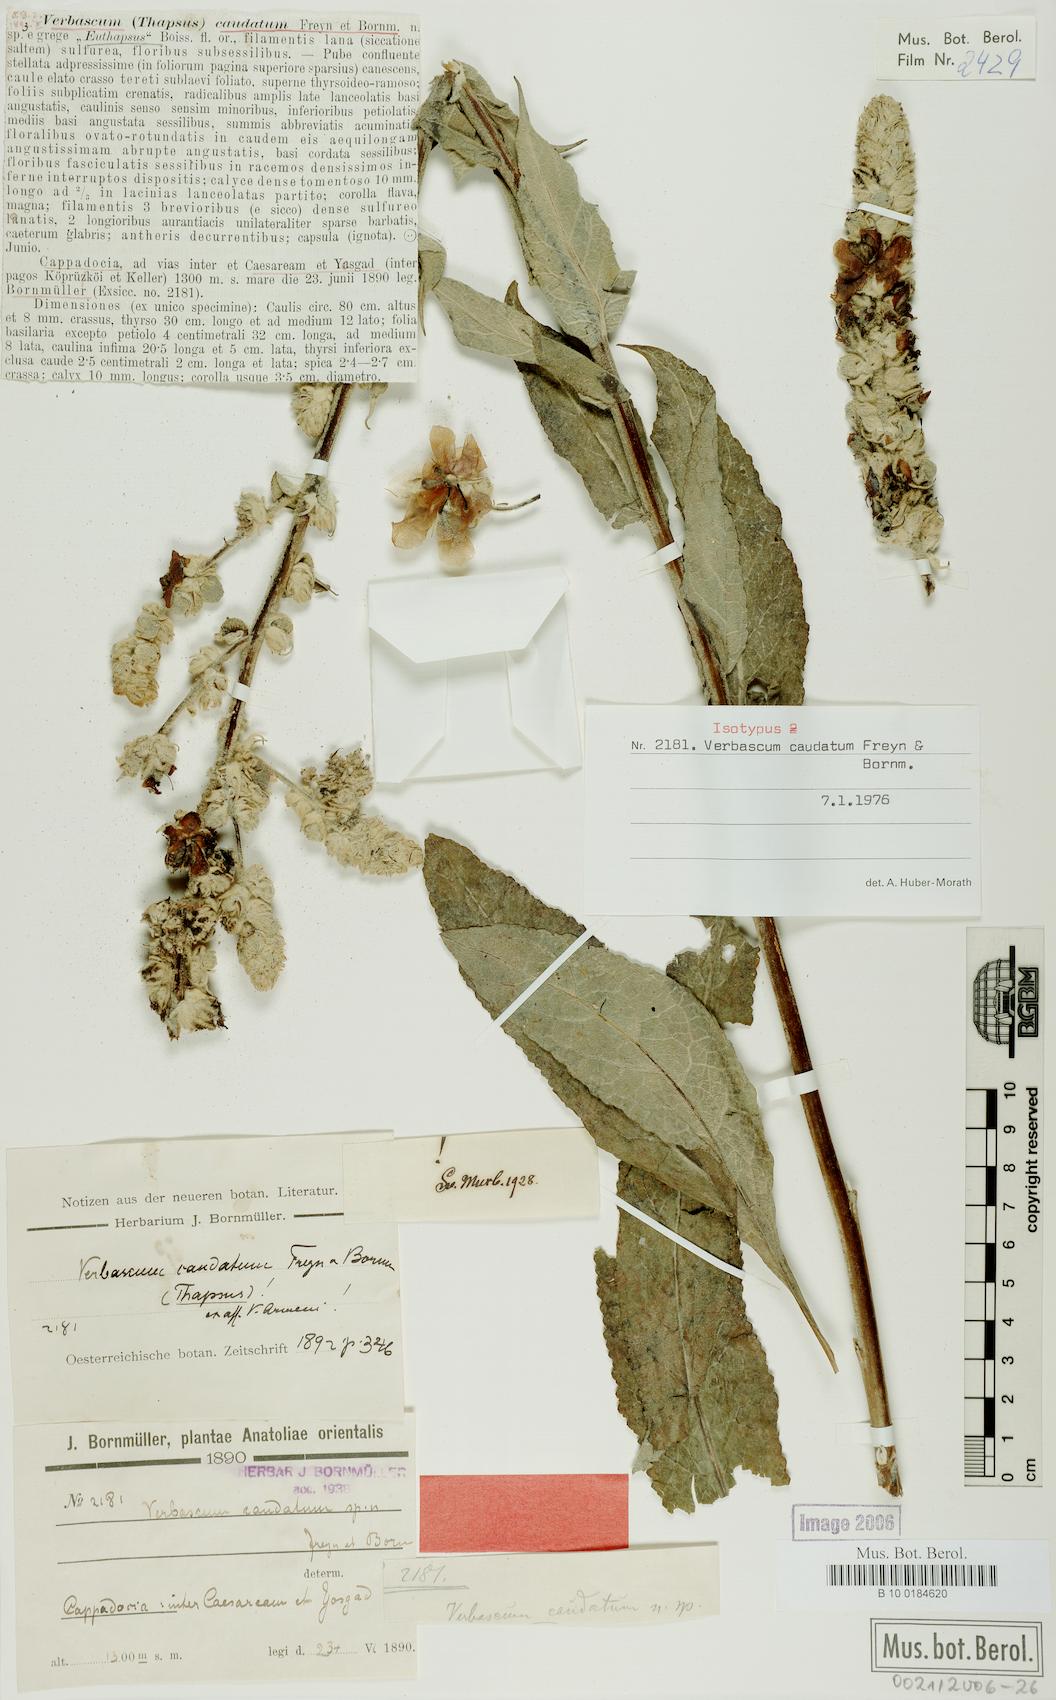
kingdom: Plantae
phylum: Tracheophyta
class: Magnoliopsida
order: Lamiales
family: Scrophulariaceae
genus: Verbascum
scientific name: Verbascum caudatum
